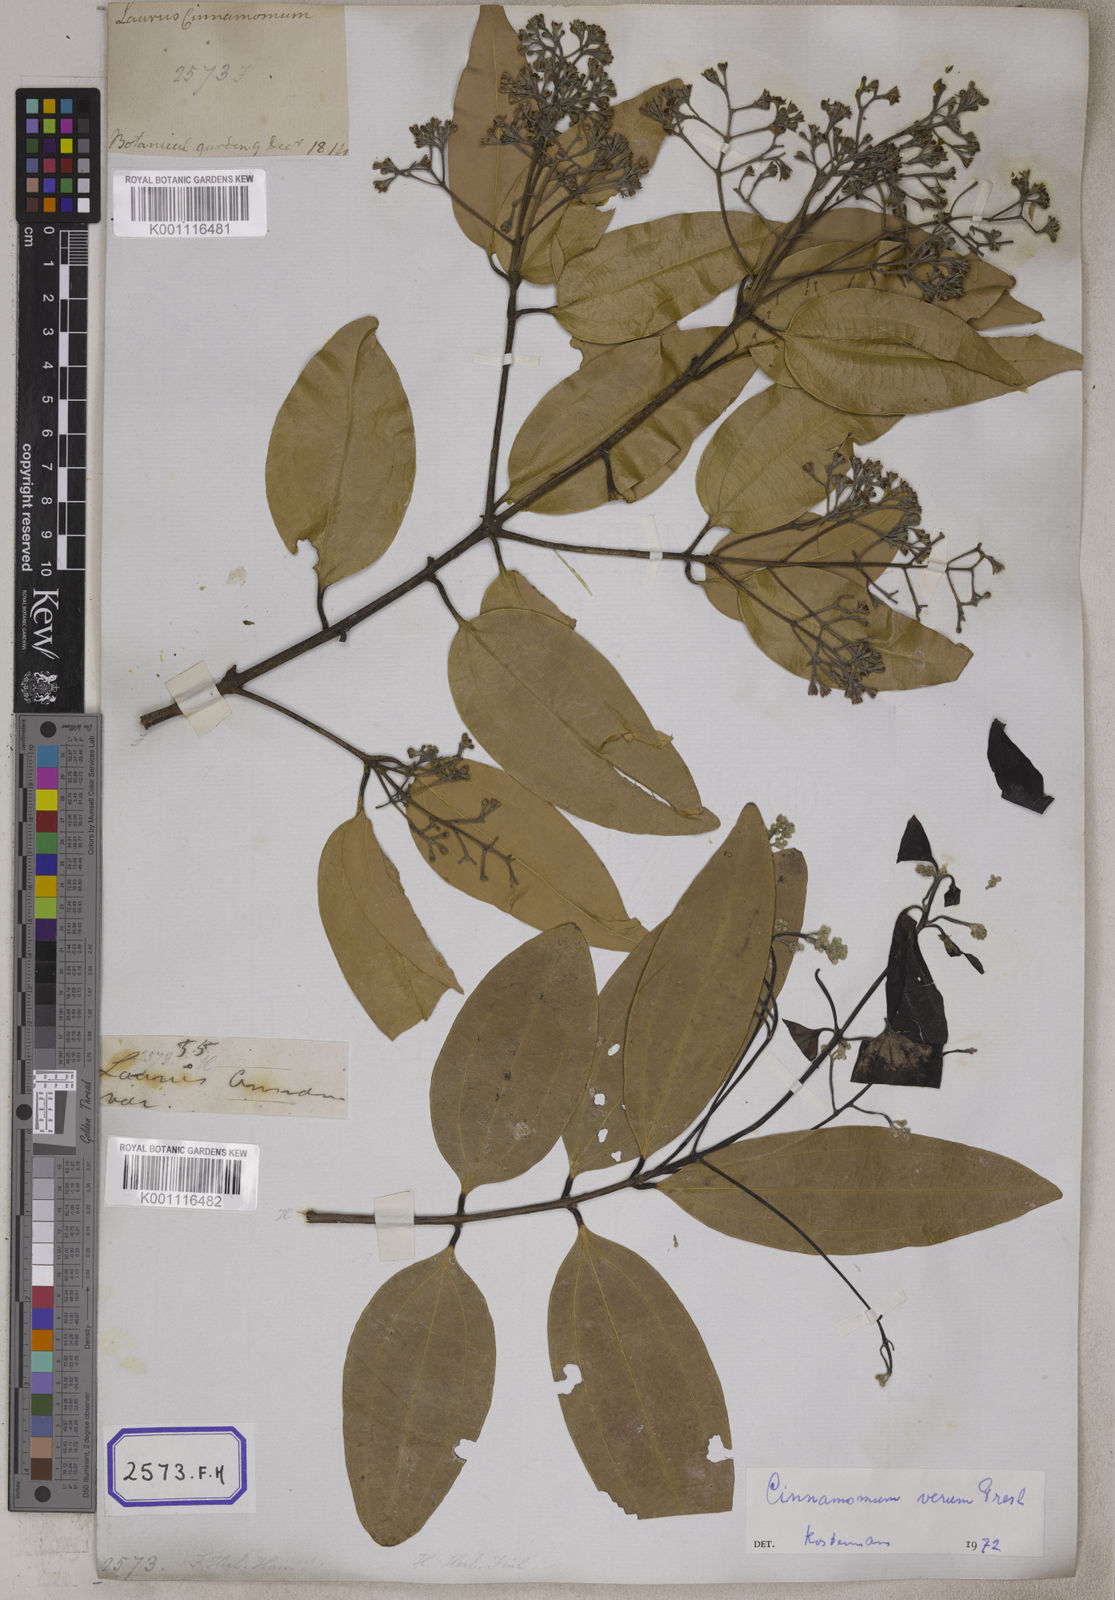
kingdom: Plantae
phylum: Tracheophyta
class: Magnoliopsida
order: Laurales
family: Lauraceae
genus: Cinnamomum
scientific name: Cinnamomum verum
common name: Cinnamon
